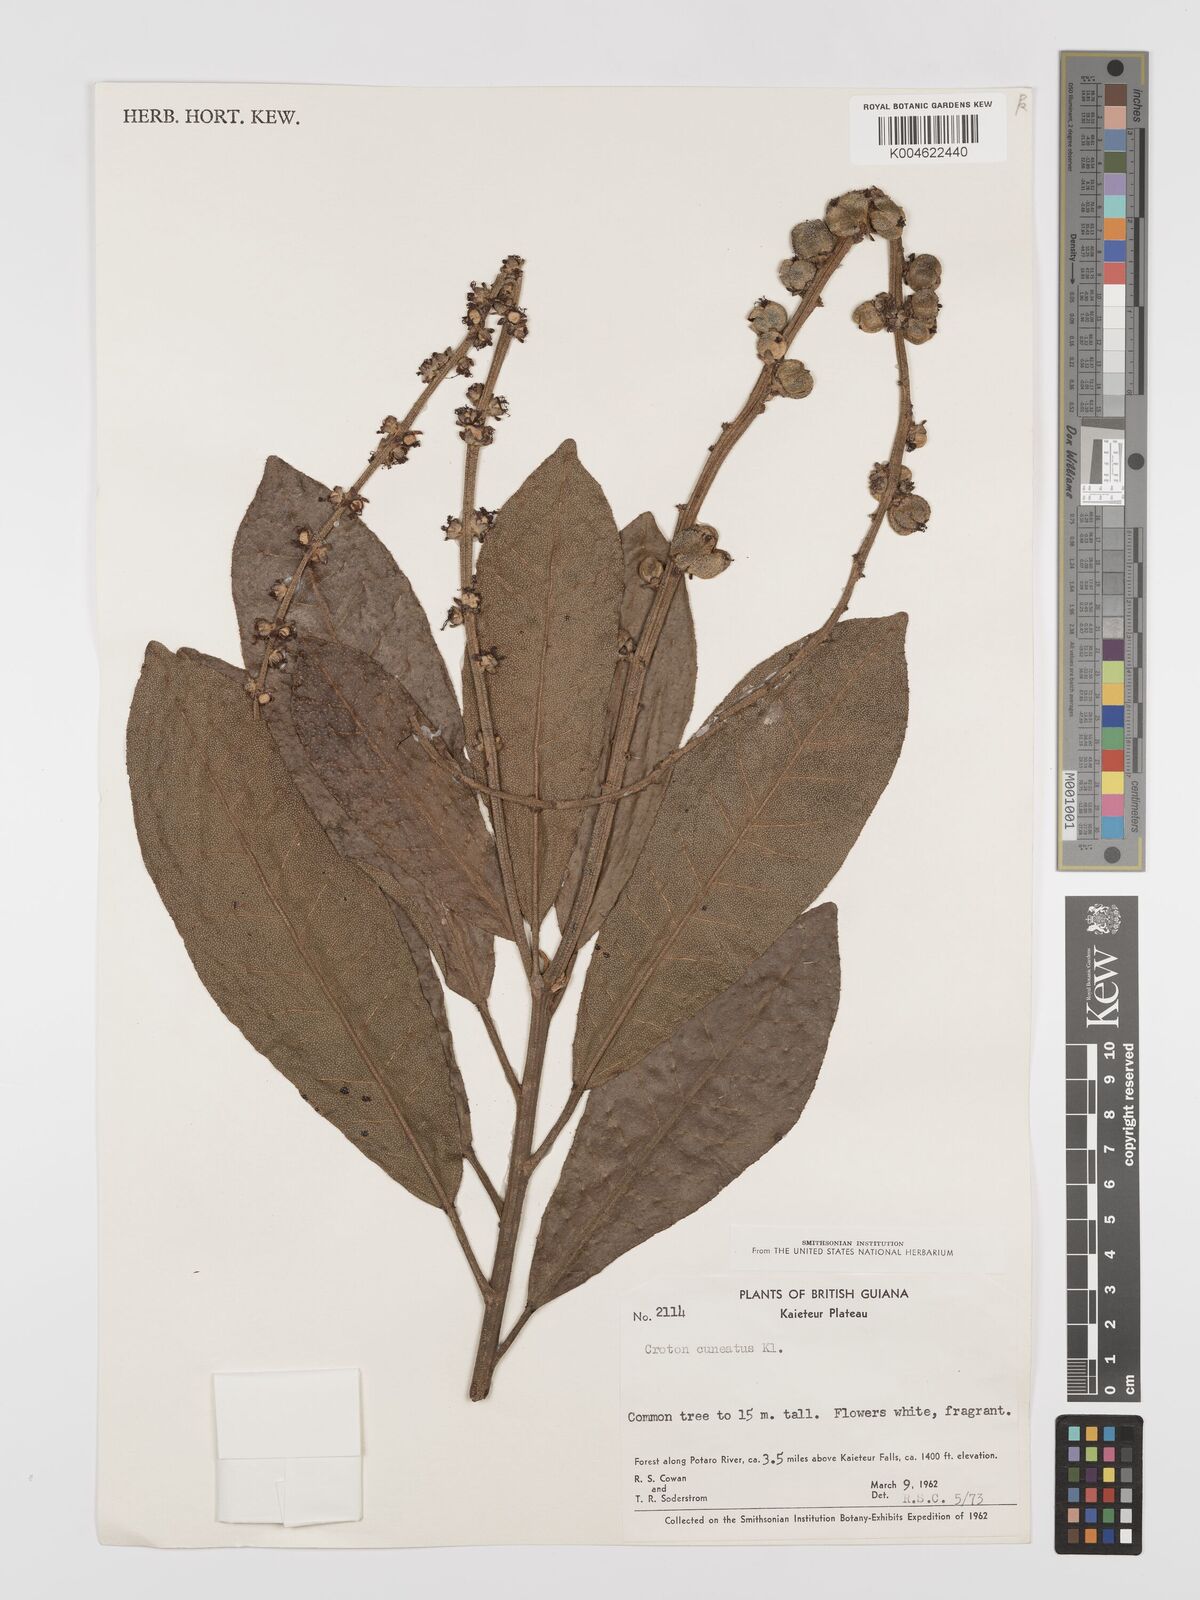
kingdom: Plantae
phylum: Tracheophyta
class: Magnoliopsida
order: Malpighiales
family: Euphorbiaceae
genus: Croton
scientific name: Croton
